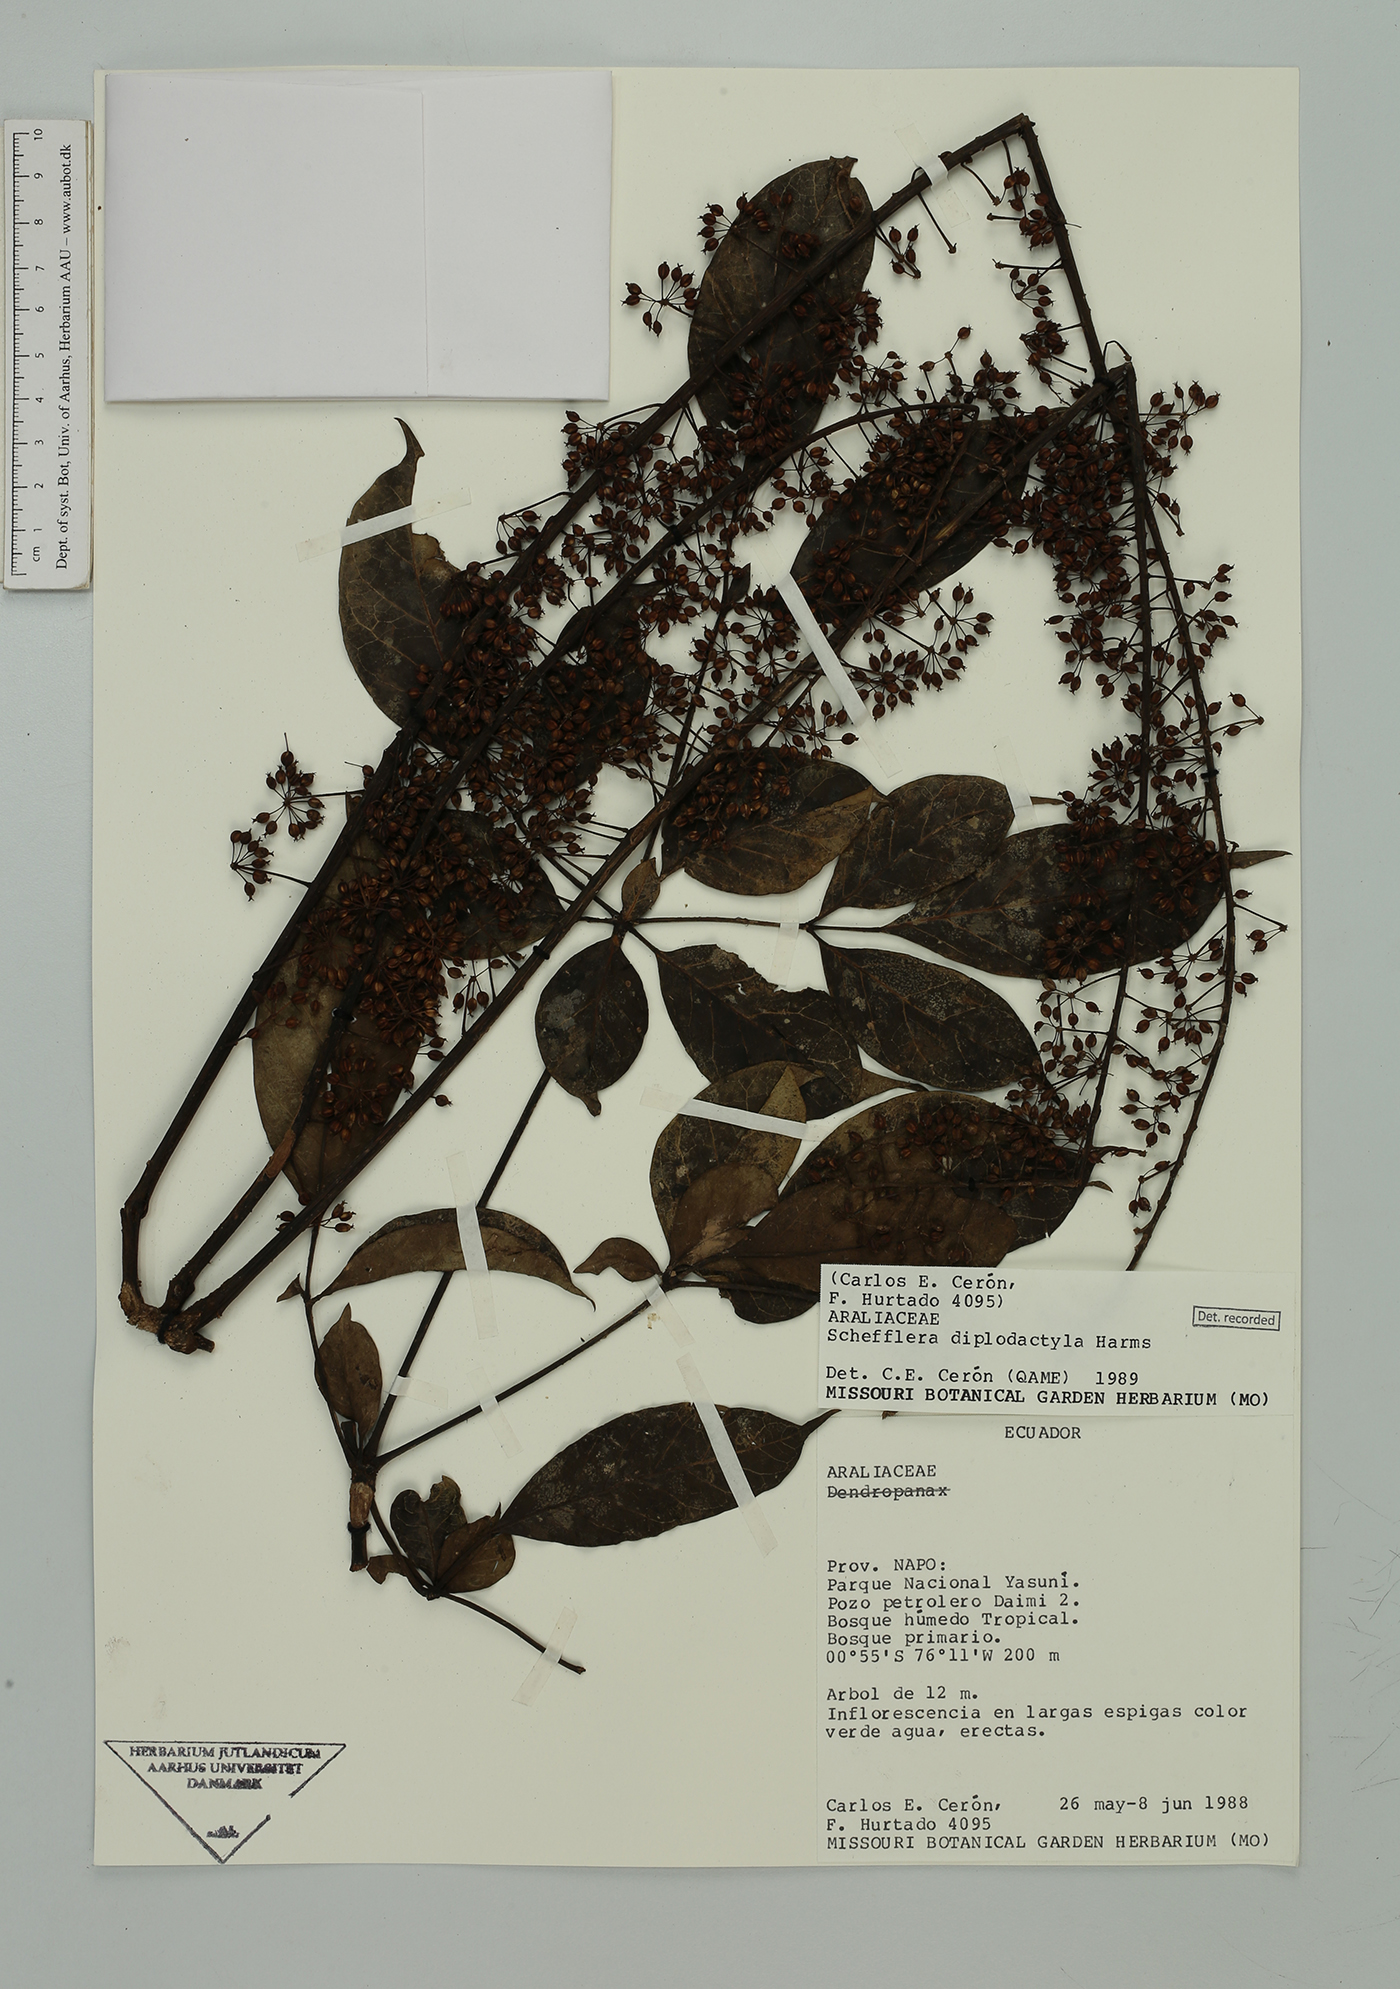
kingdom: Plantae
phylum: Tracheophyta
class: Magnoliopsida
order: Apiales
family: Araliaceae
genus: Sciodaphyllum
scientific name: Sciodaphyllum diplodactylum
